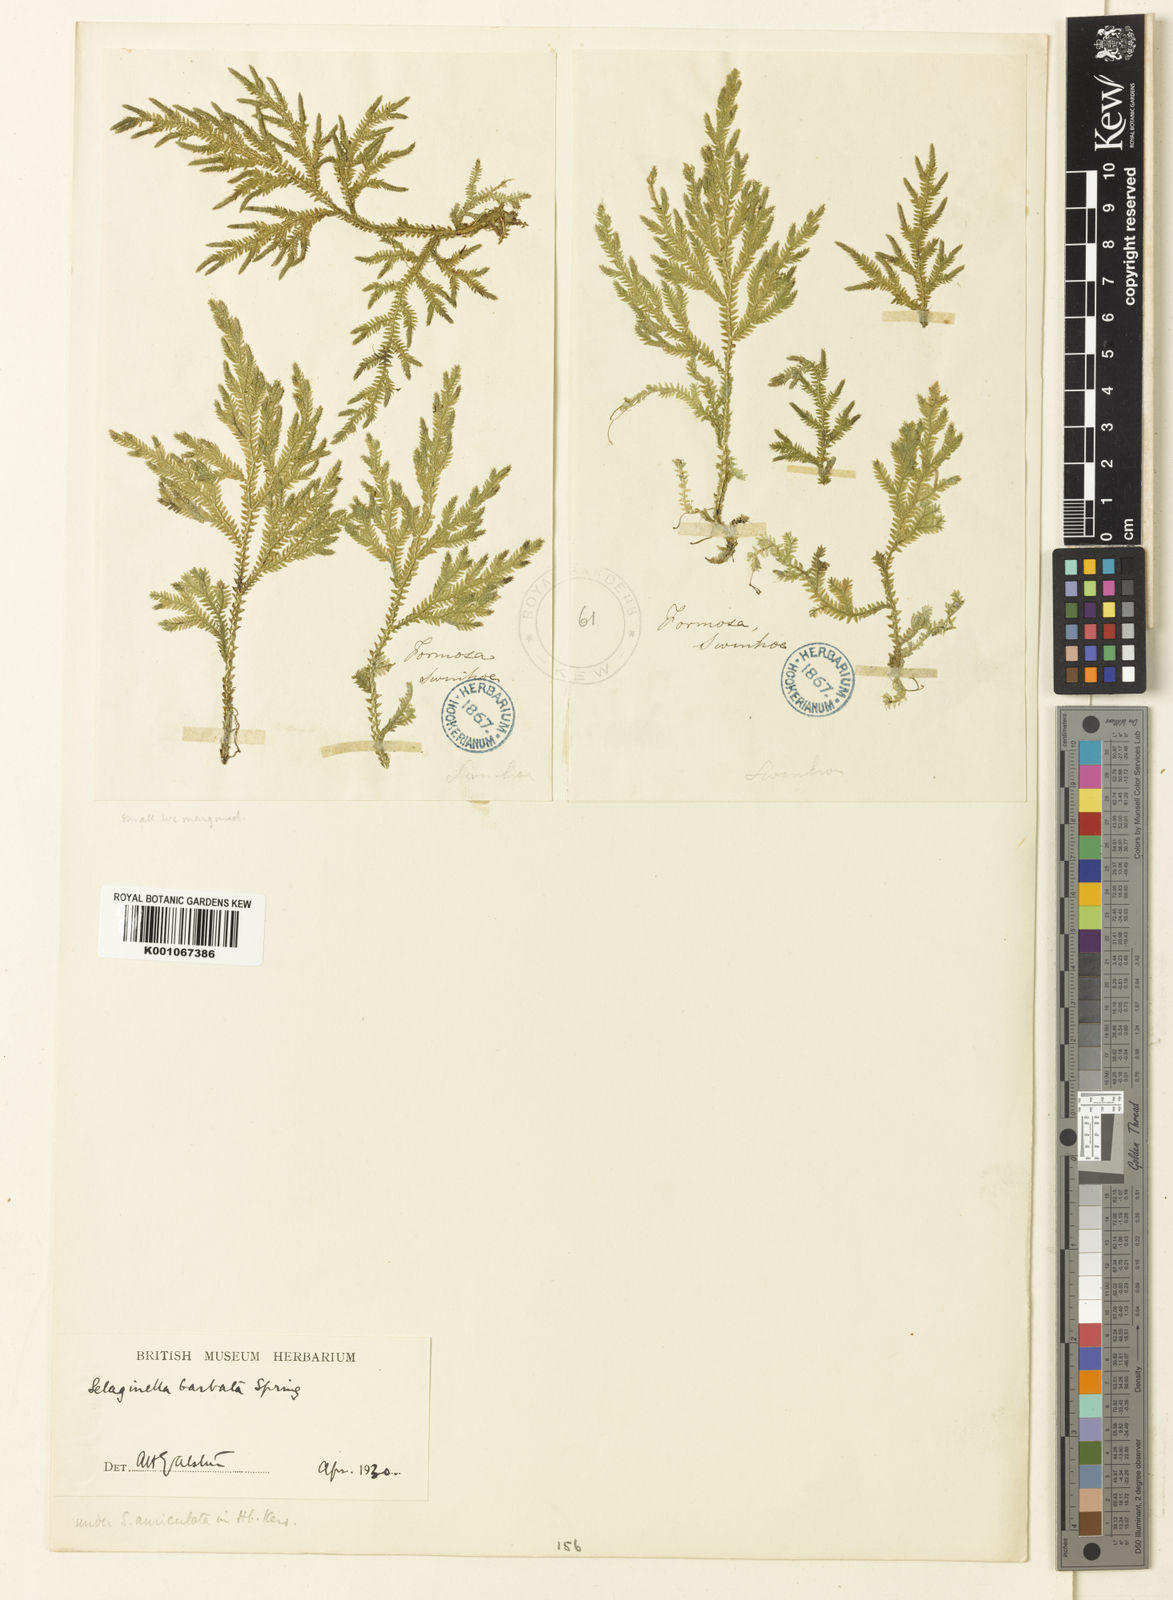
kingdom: Plantae
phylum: Tracheophyta
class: Lycopodiopsida
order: Selaginellales
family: Selaginellaceae
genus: Selaginella
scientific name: Selaginella repanda
